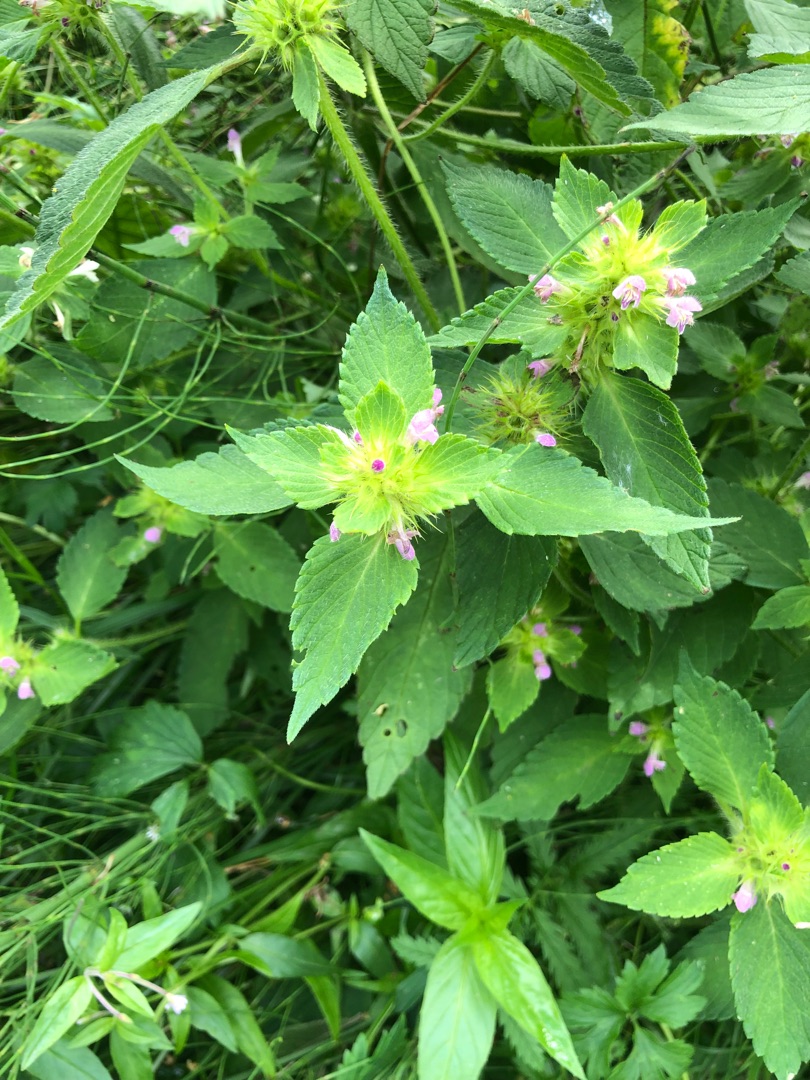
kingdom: Plantae
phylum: Tracheophyta
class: Magnoliopsida
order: Lamiales
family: Lamiaceae
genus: Galeopsis
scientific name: Galeopsis bifida
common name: Skov-hanekro
